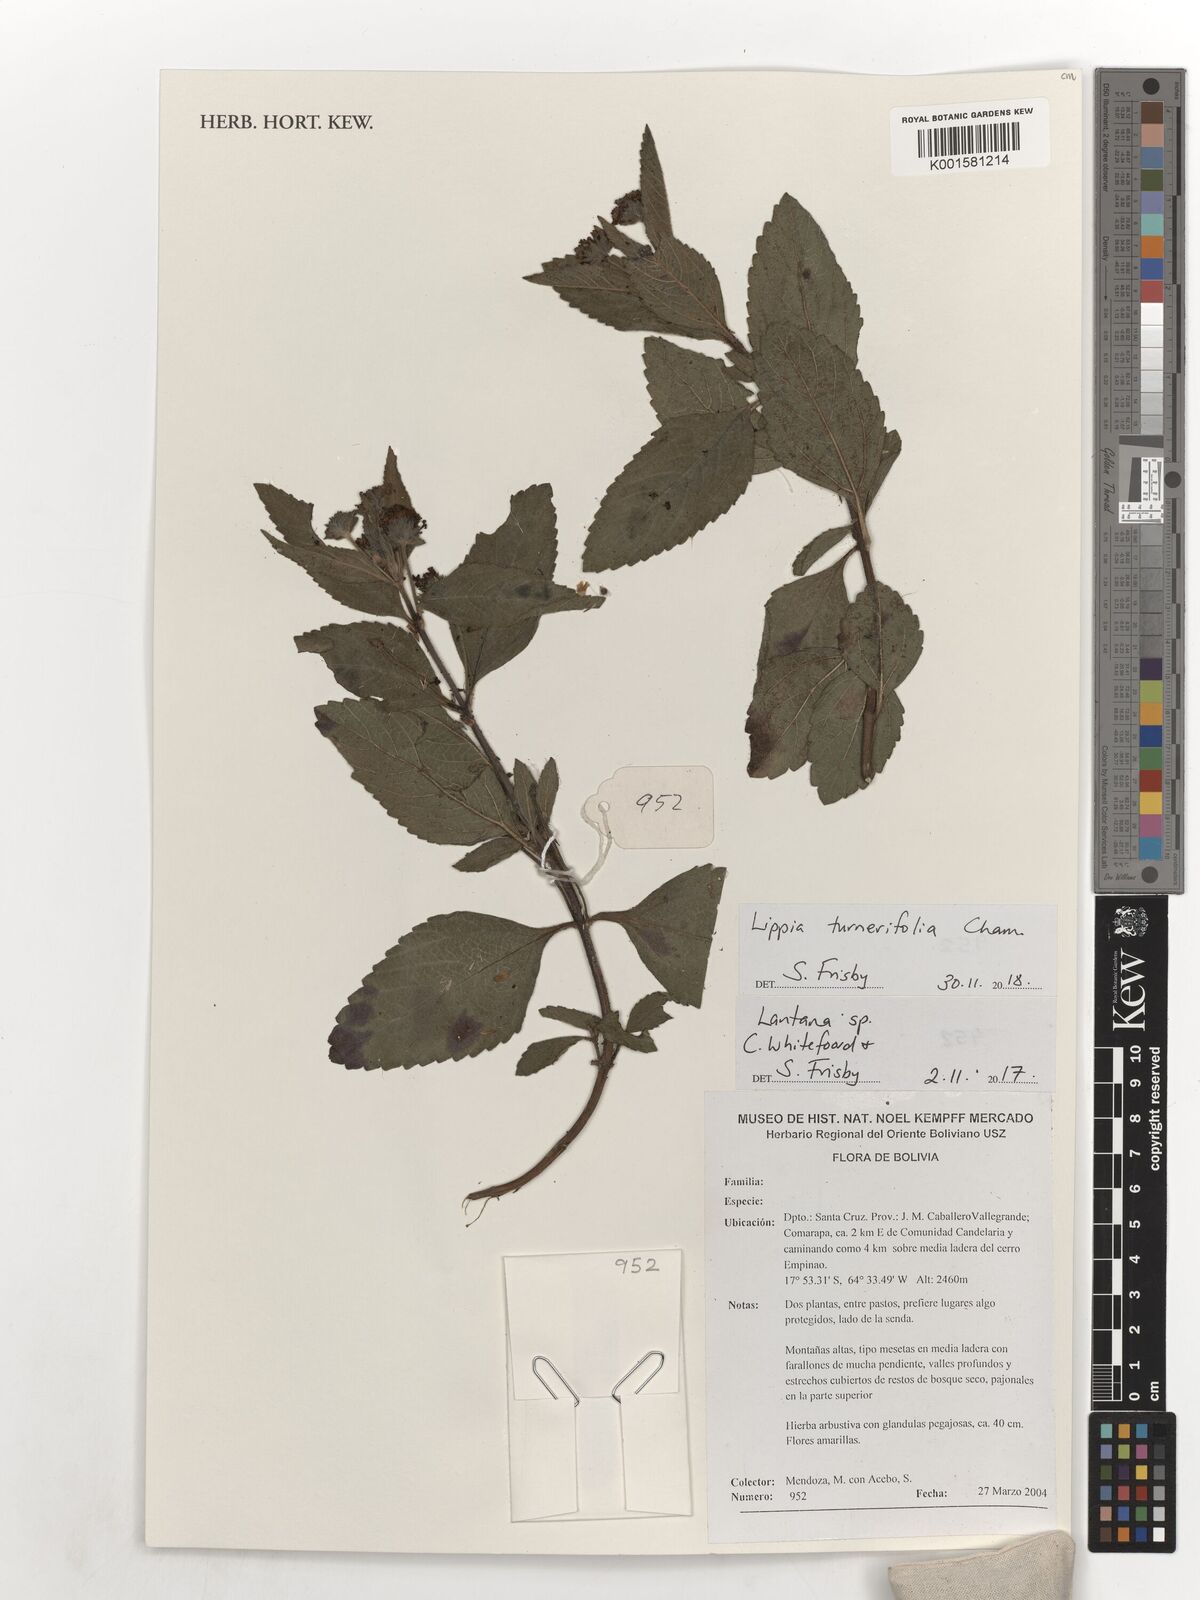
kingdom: Plantae
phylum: Tracheophyta
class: Magnoliopsida
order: Lamiales
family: Verbenaceae
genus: Lippia
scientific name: Lippia turnerifolia
